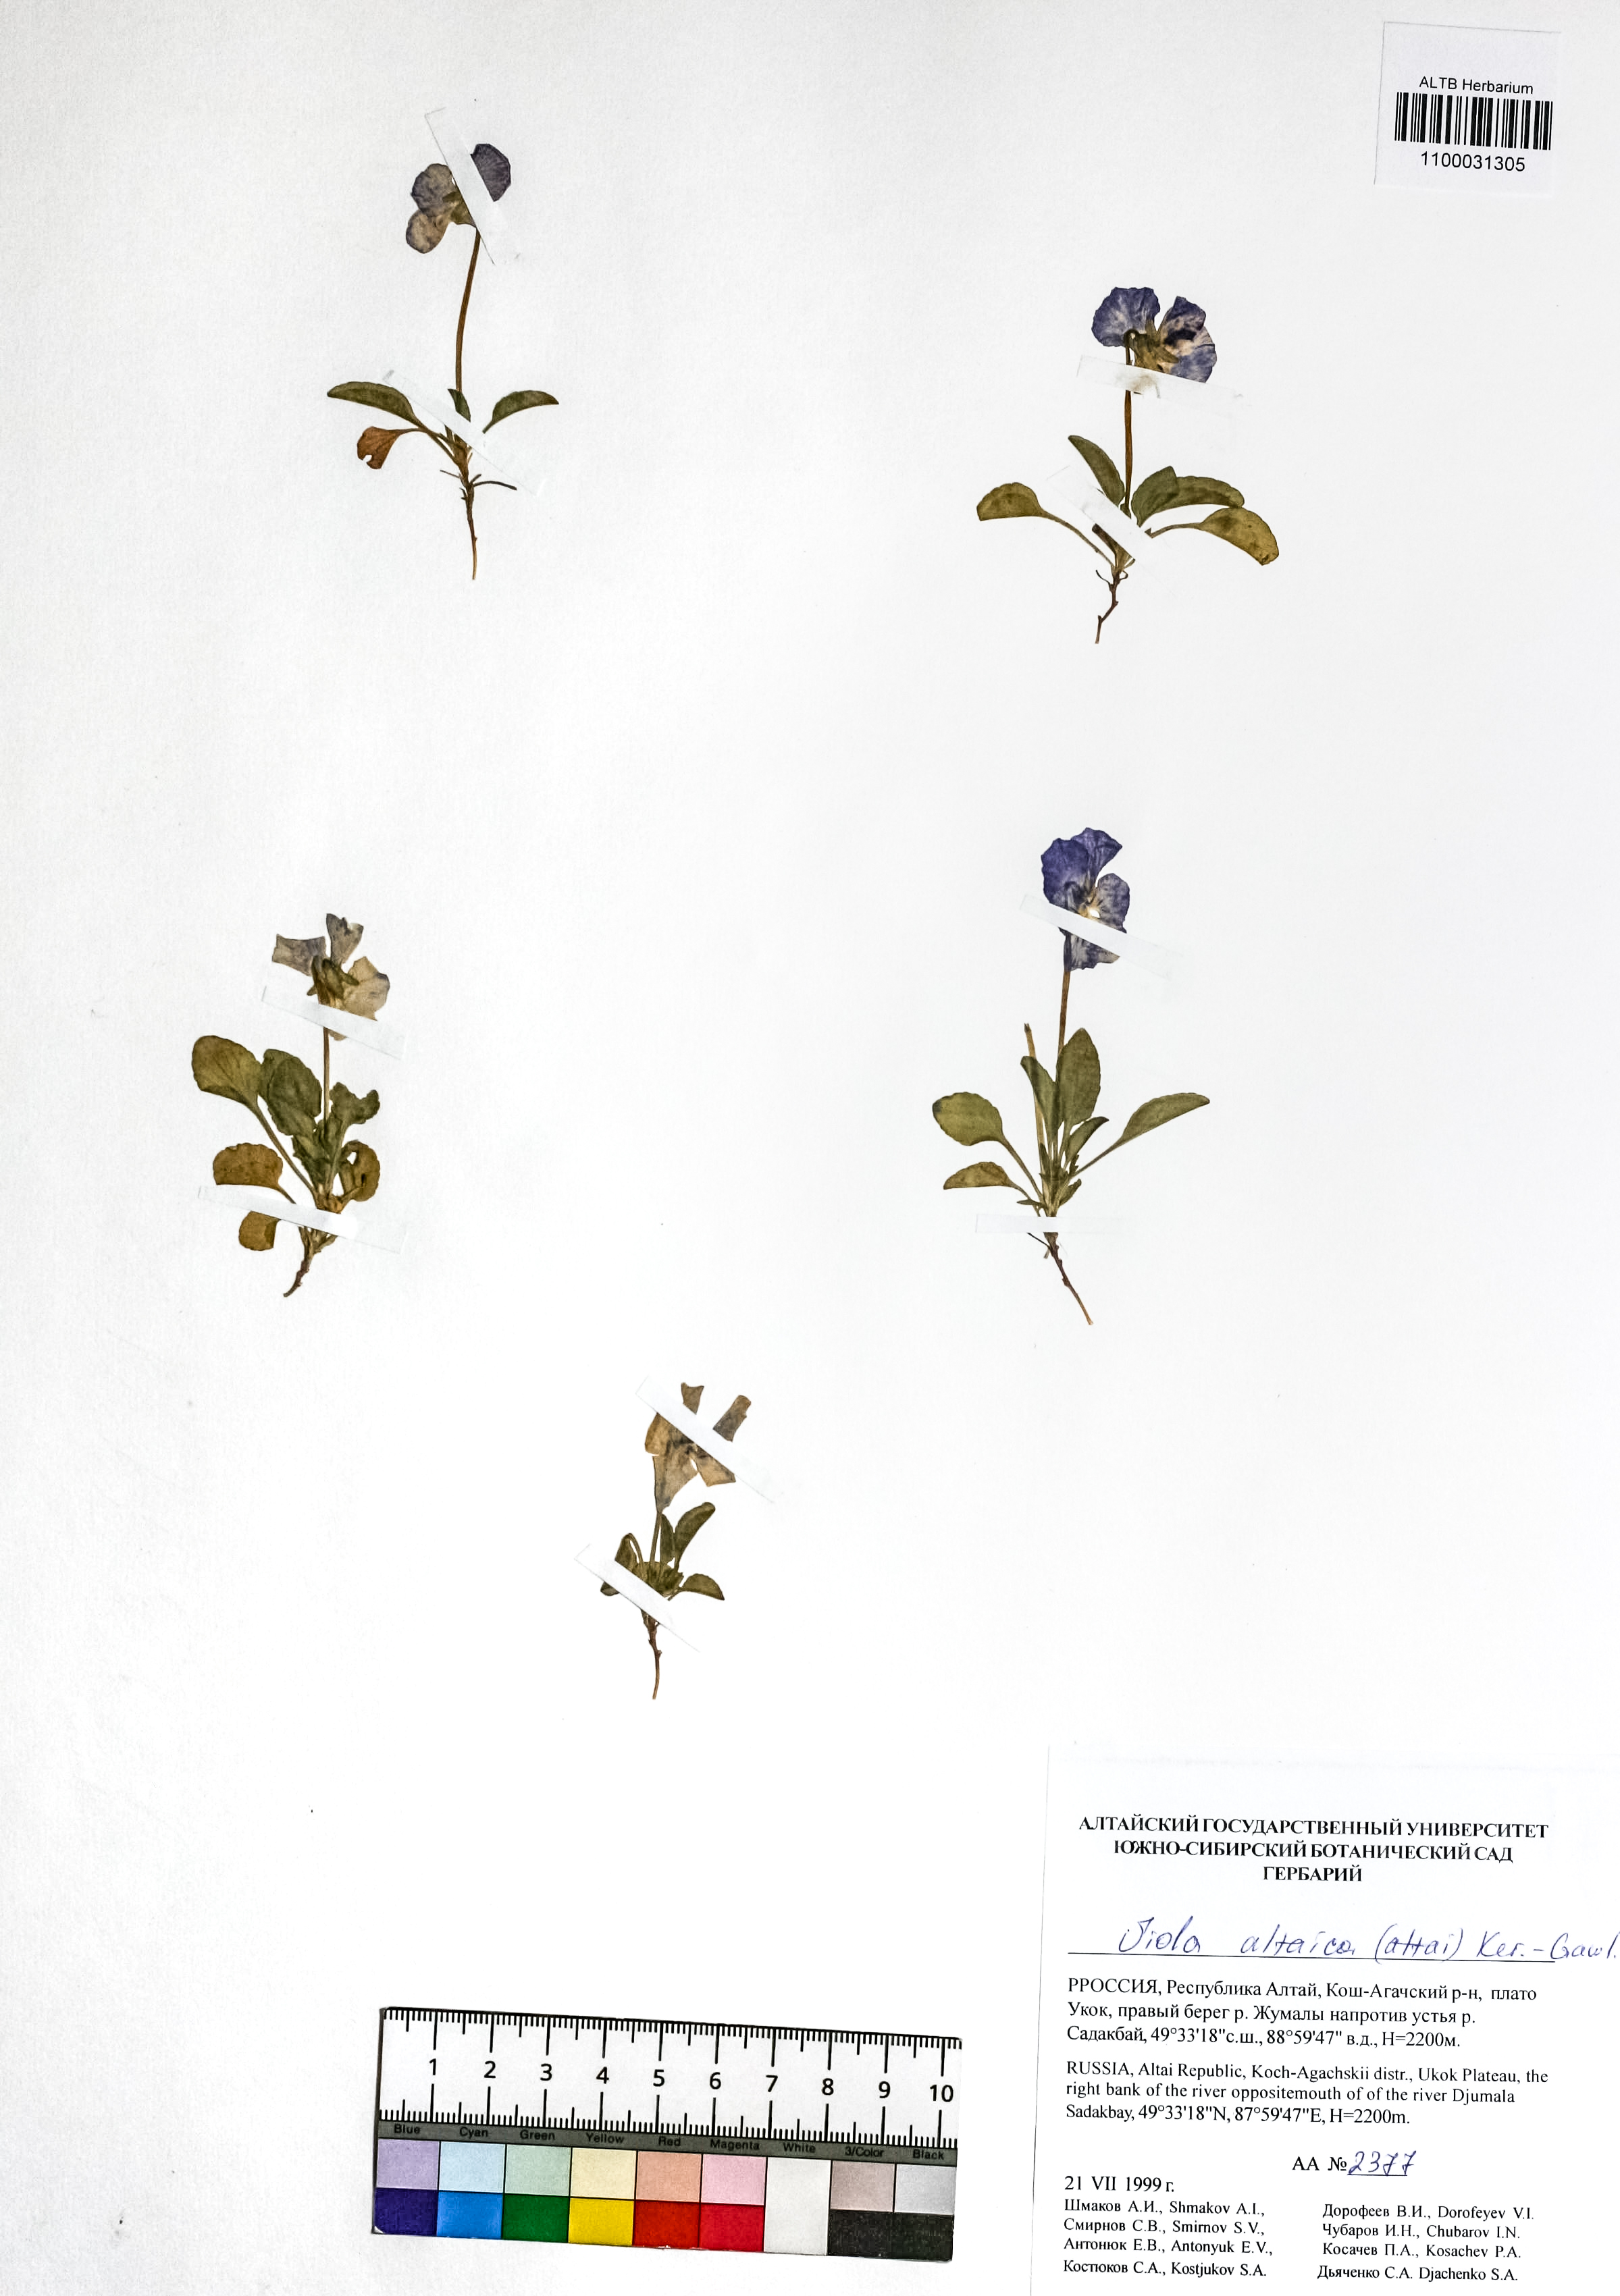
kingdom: Plantae
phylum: Tracheophyta
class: Magnoliopsida
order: Malpighiales
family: Violaceae
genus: Viola
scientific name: Viola altaica
